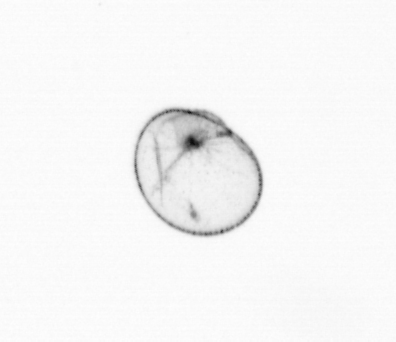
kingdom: Chromista
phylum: Myzozoa
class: Dinophyceae
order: Noctilucales
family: Noctilucaceae
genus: Noctiluca
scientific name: Noctiluca scintillans
